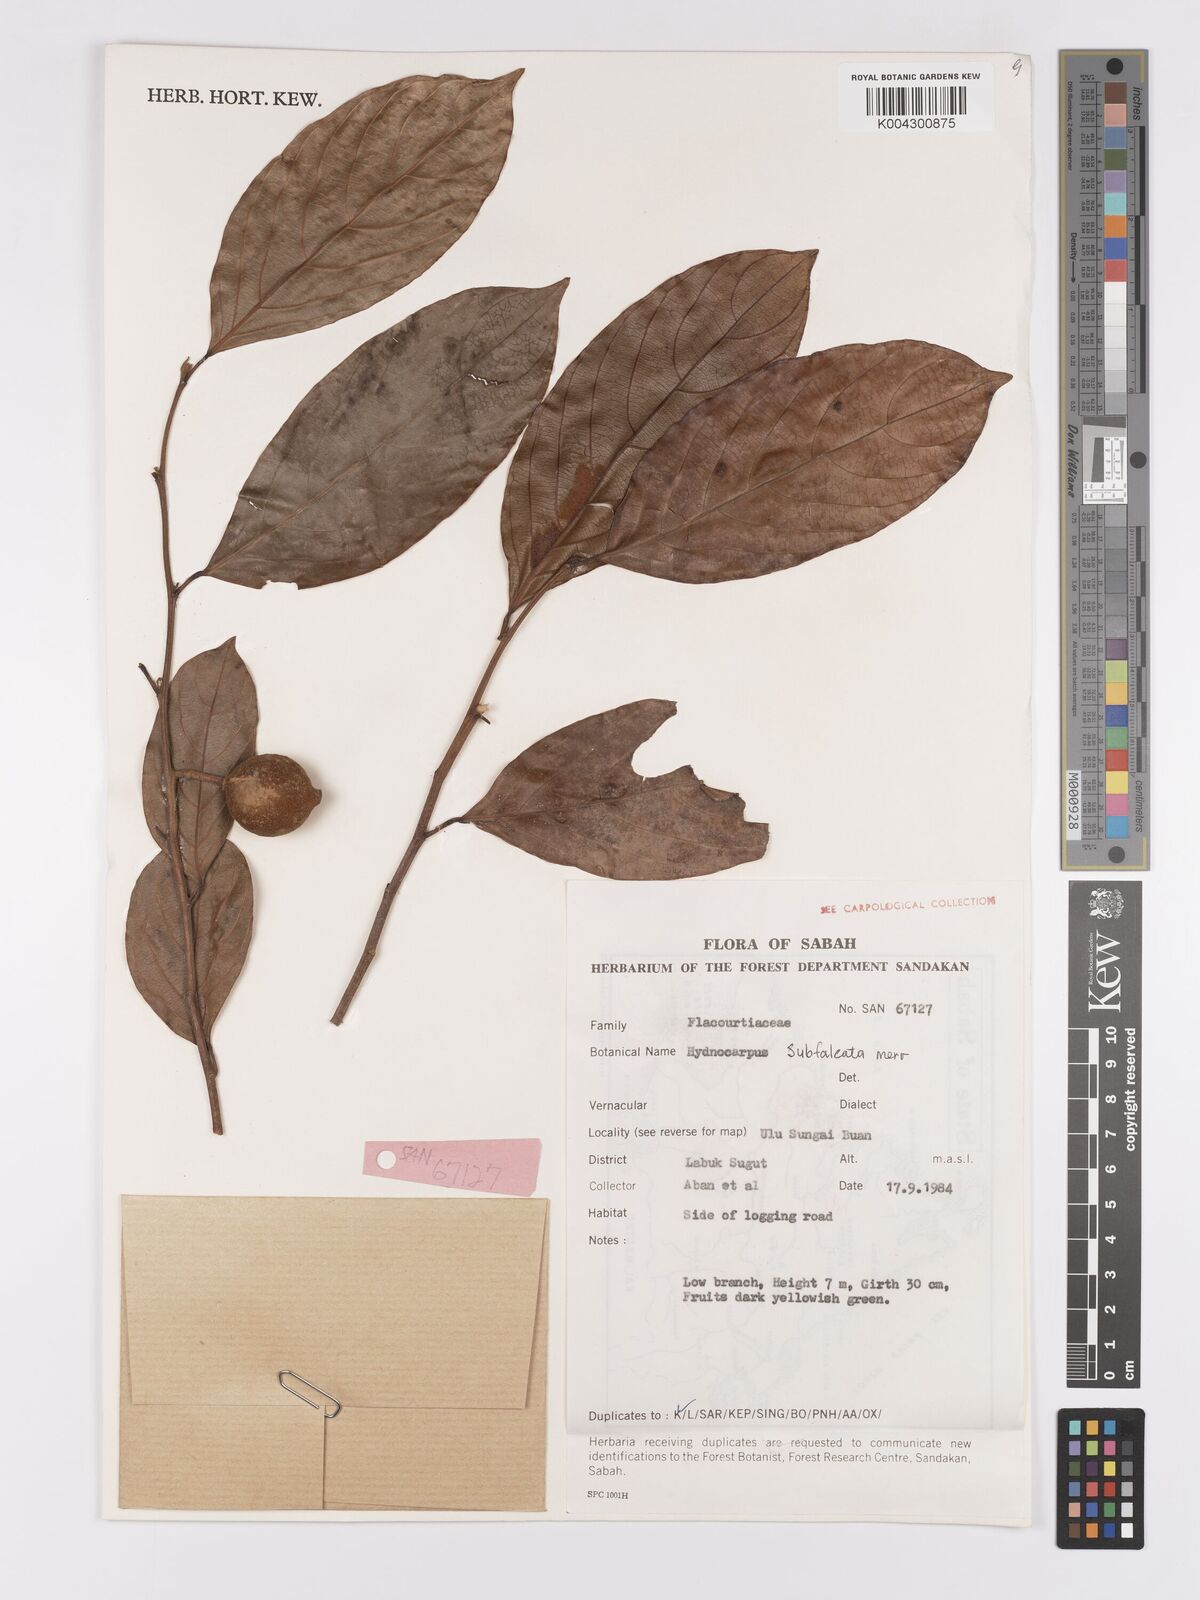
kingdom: Plantae
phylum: Tracheophyta
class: Magnoliopsida
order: Malpighiales
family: Achariaceae
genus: Hydnocarpus
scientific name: Hydnocarpus subfalcatus
